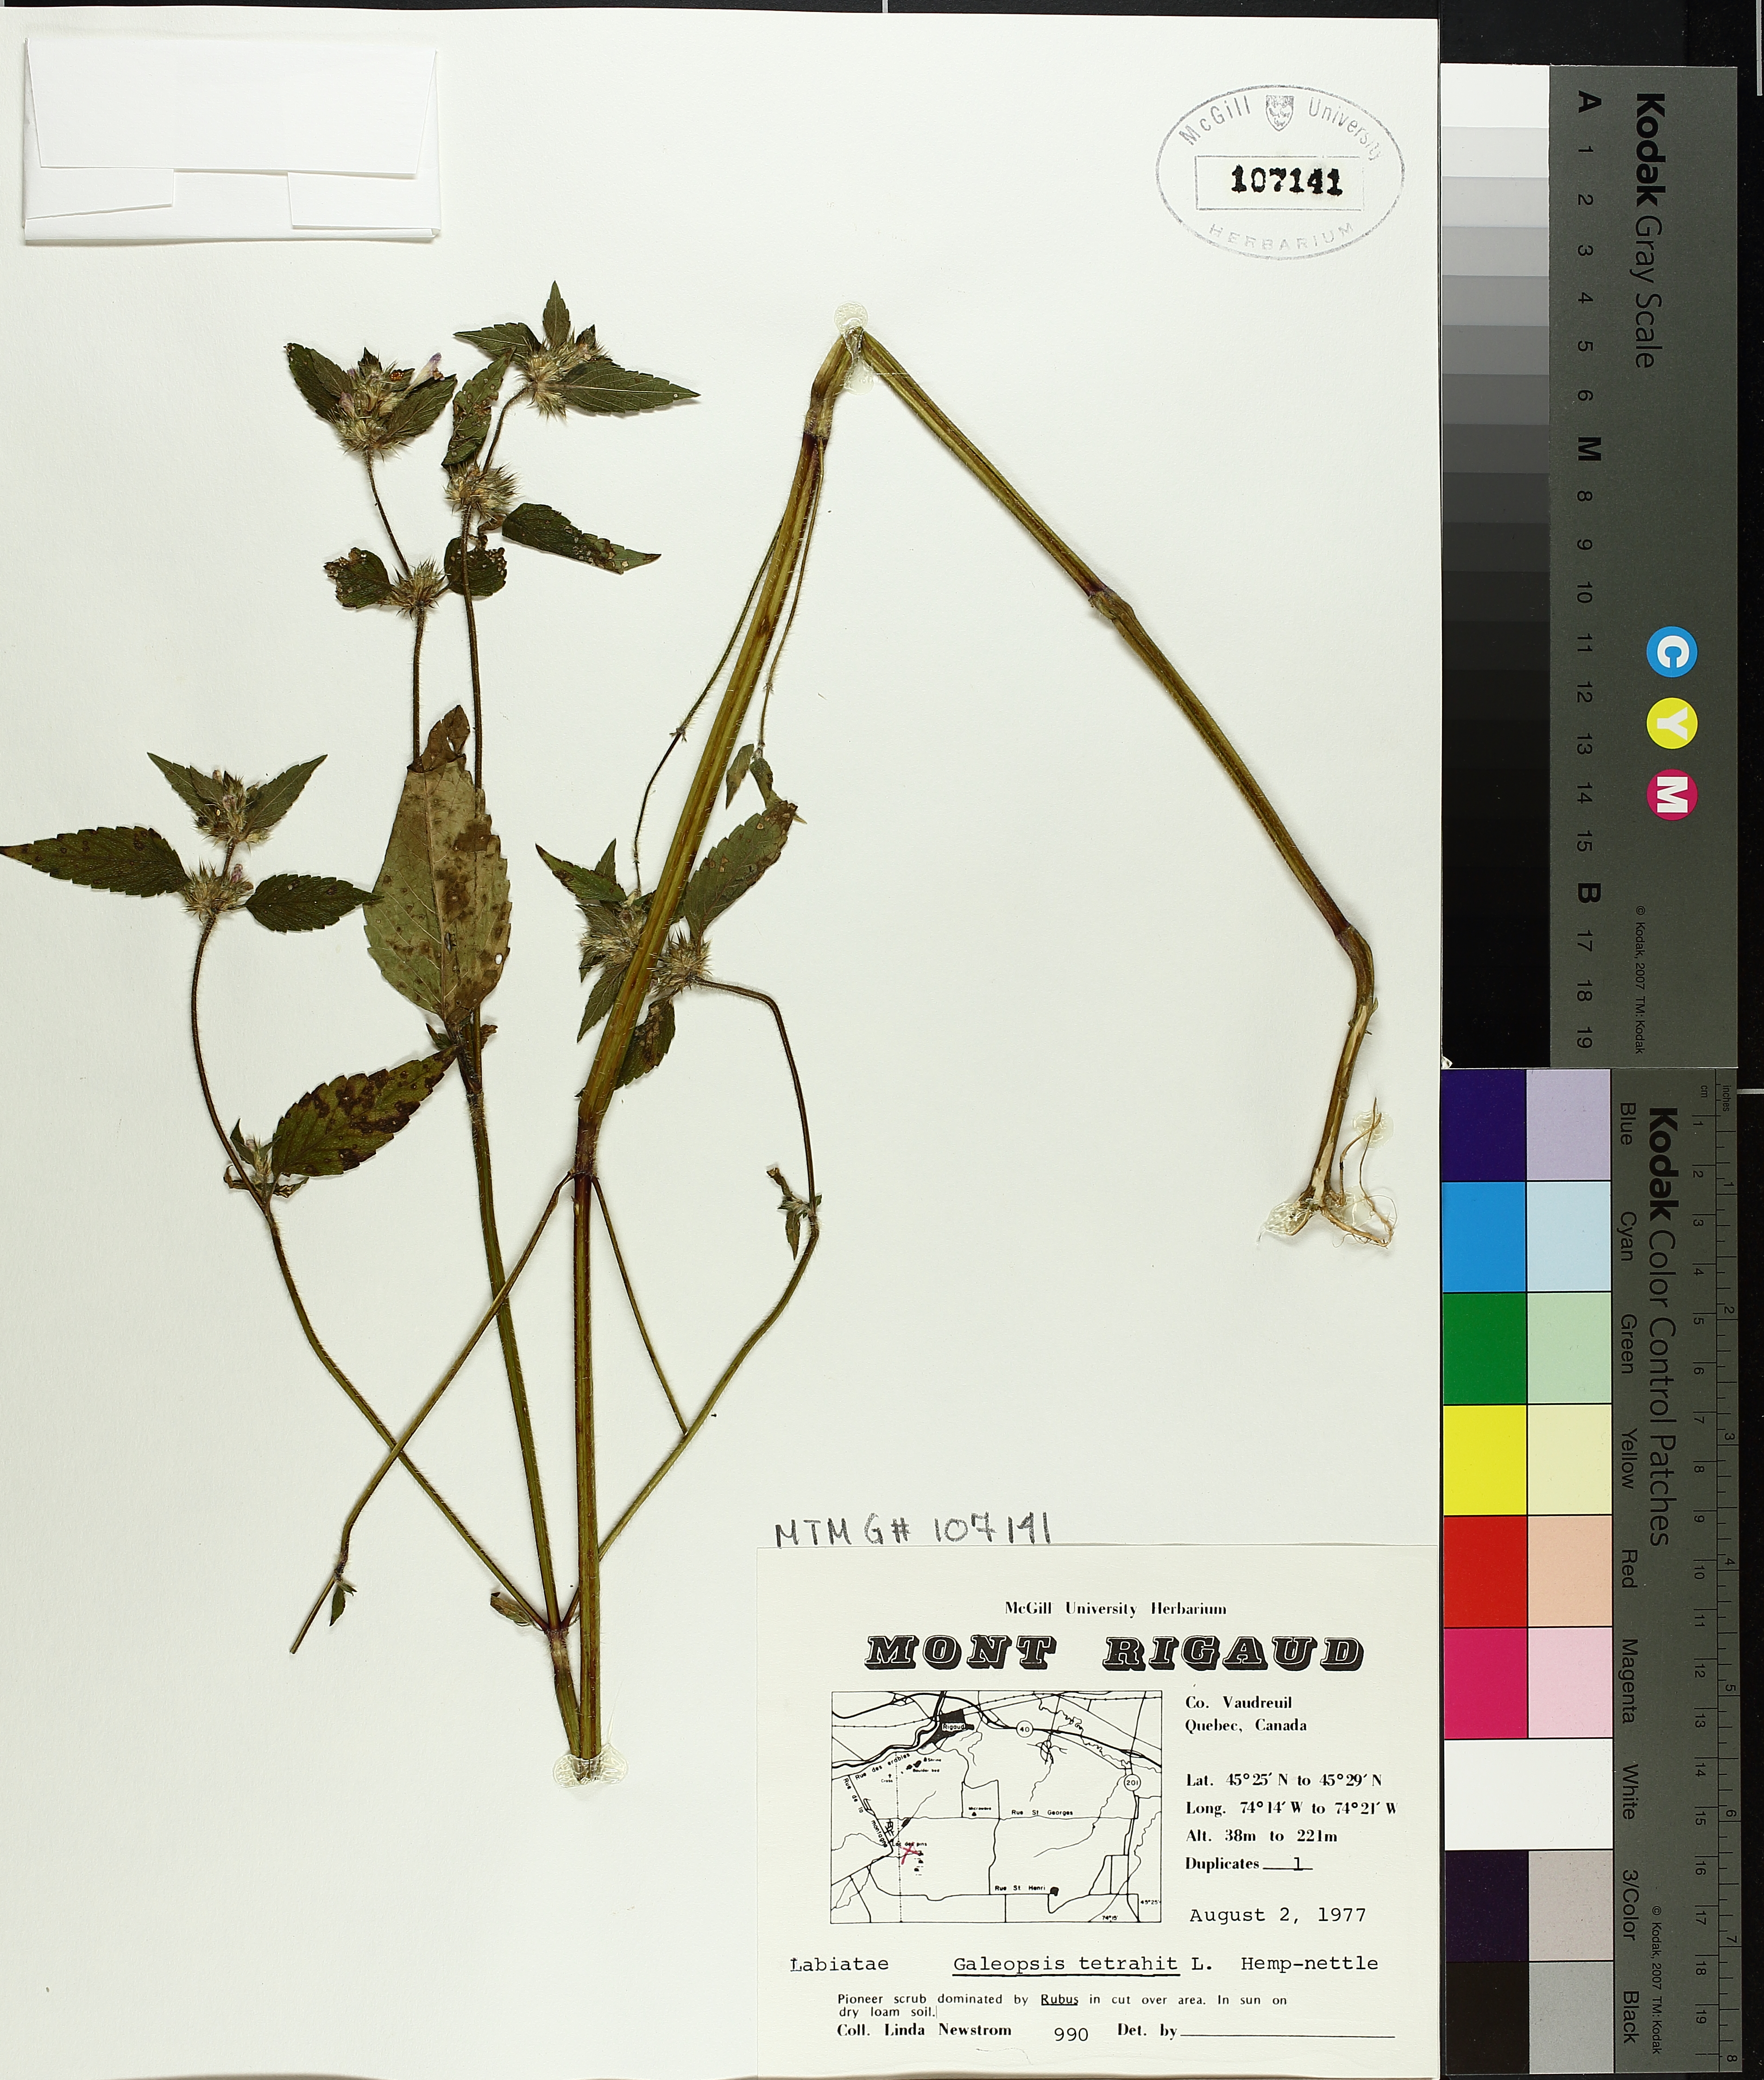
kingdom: Plantae
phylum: Tracheophyta
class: Magnoliopsida
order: Lamiales
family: Lamiaceae
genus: Galeopsis
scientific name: Galeopsis tetrahit
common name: Common hemp-nettle
